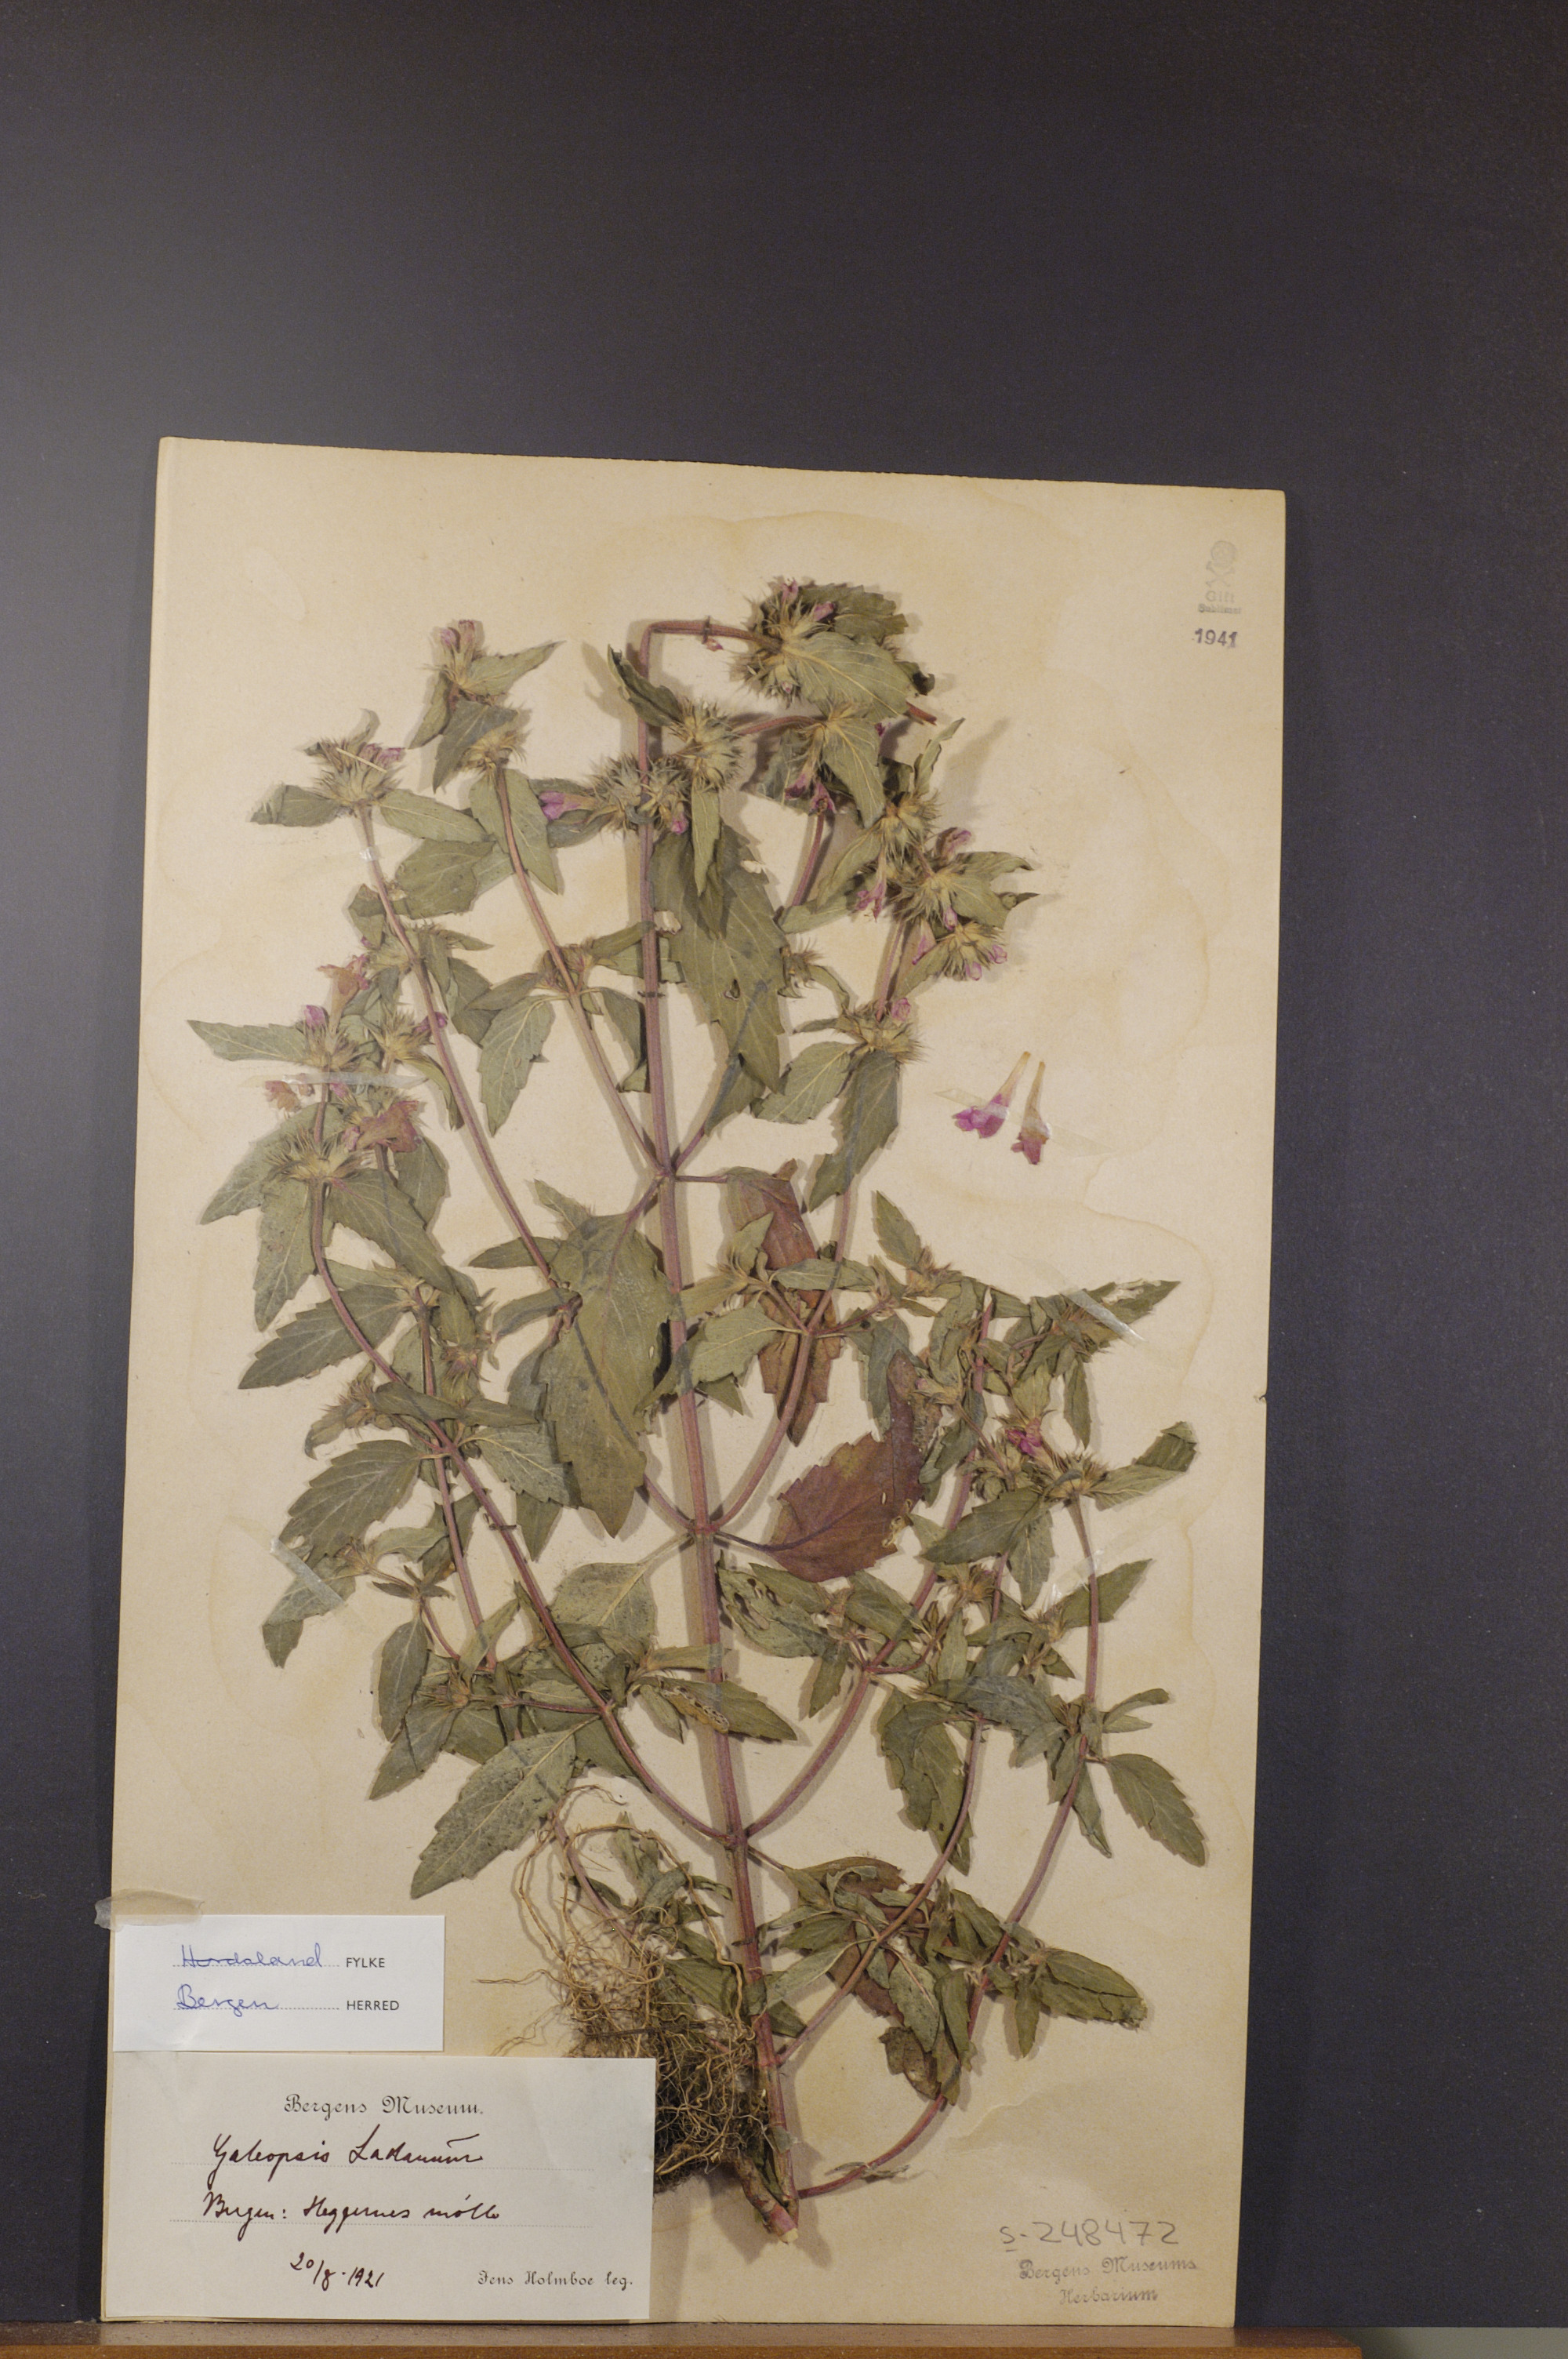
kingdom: Plantae
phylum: Tracheophyta
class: Magnoliopsida
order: Lamiales
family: Lamiaceae
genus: Galeopsis
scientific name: Galeopsis ladanum
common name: Broad-leaved hemp-nettle
